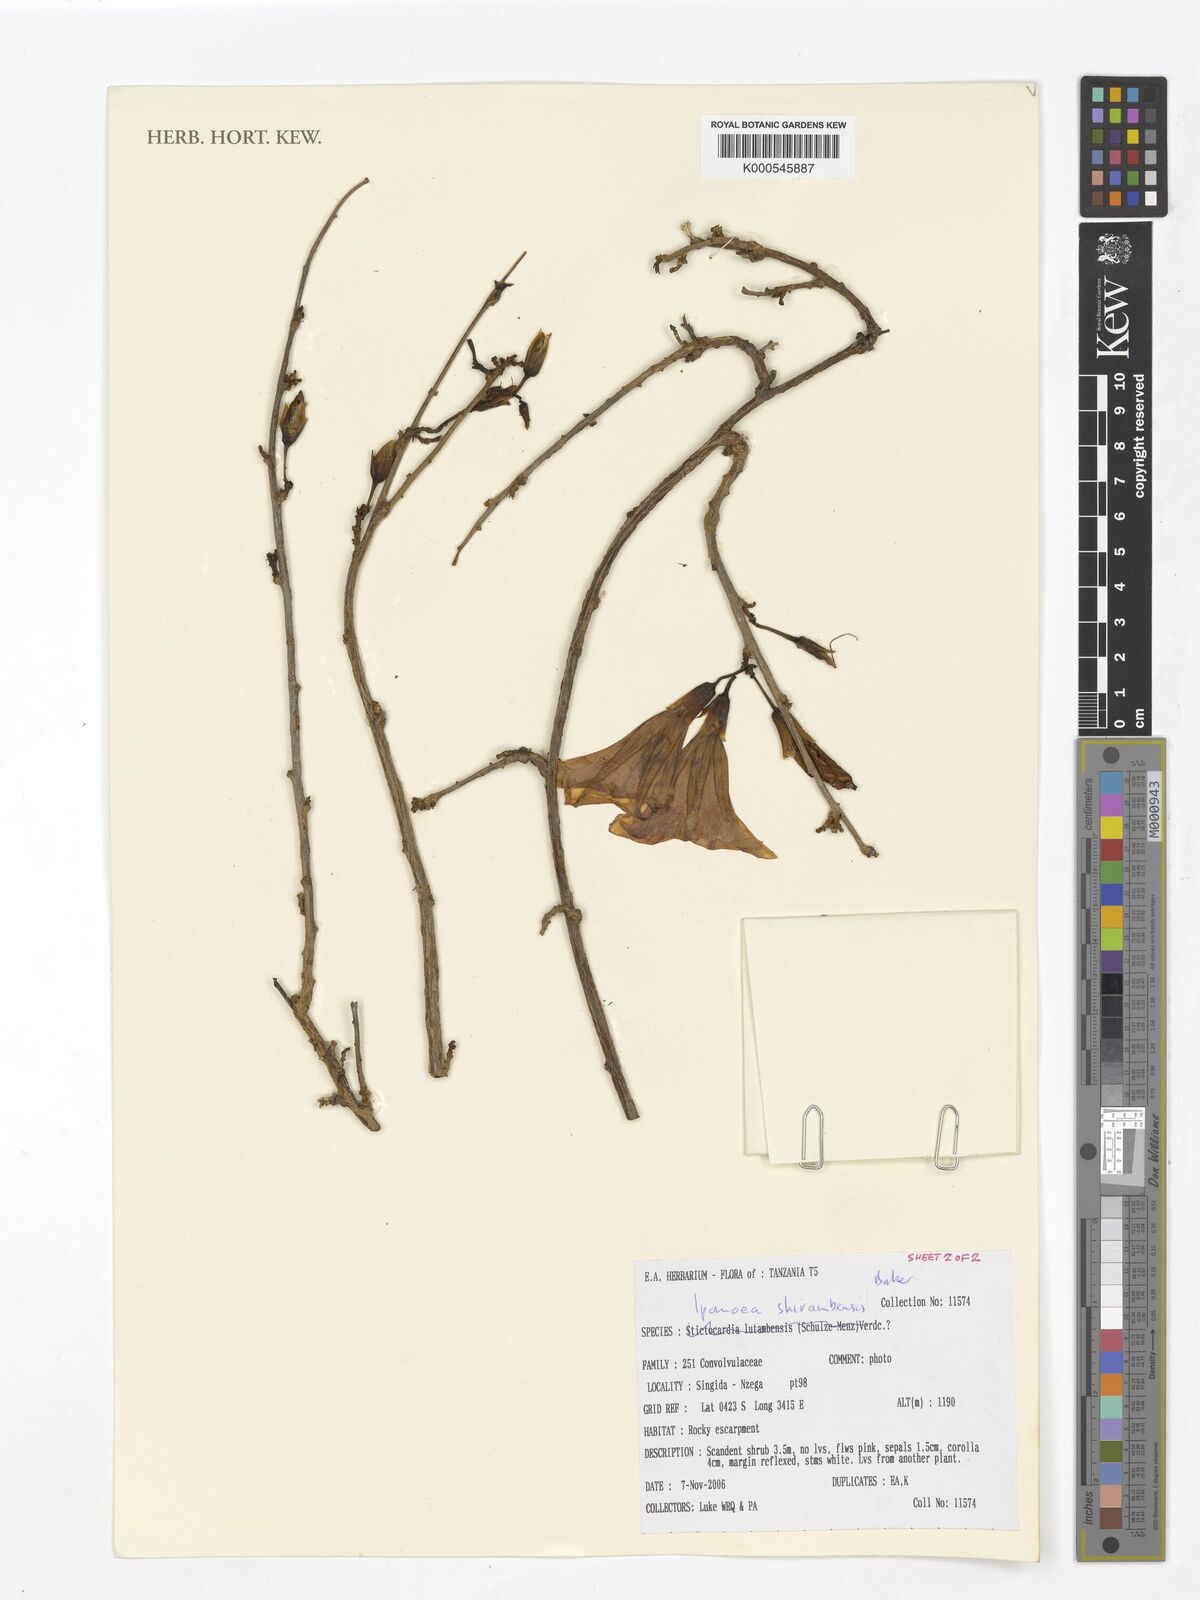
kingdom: Plantae
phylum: Tracheophyta
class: Magnoliopsida
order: Solanales
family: Convolvulaceae
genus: Ipomoea
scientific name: Ipomoea shirambensis
